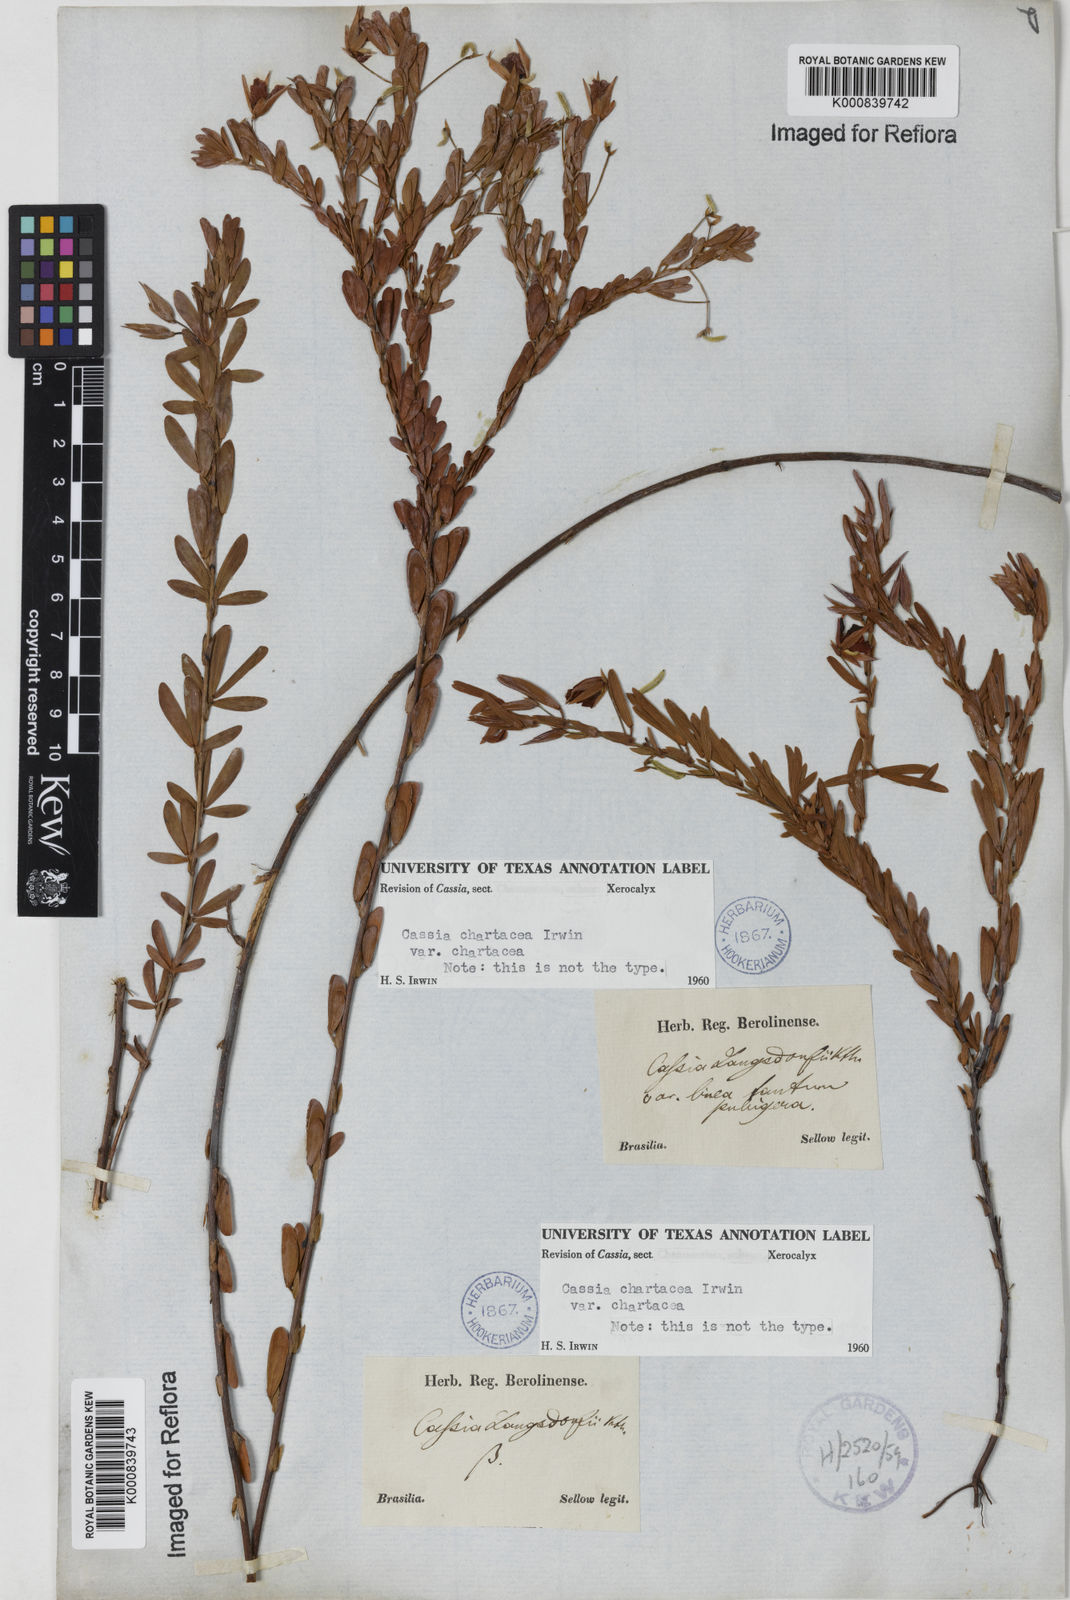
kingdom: Plantae
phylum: Tracheophyta
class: Magnoliopsida
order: Fabales
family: Fabaceae
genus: Chamaecrista
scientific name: Chamaecrista langsdorffii
